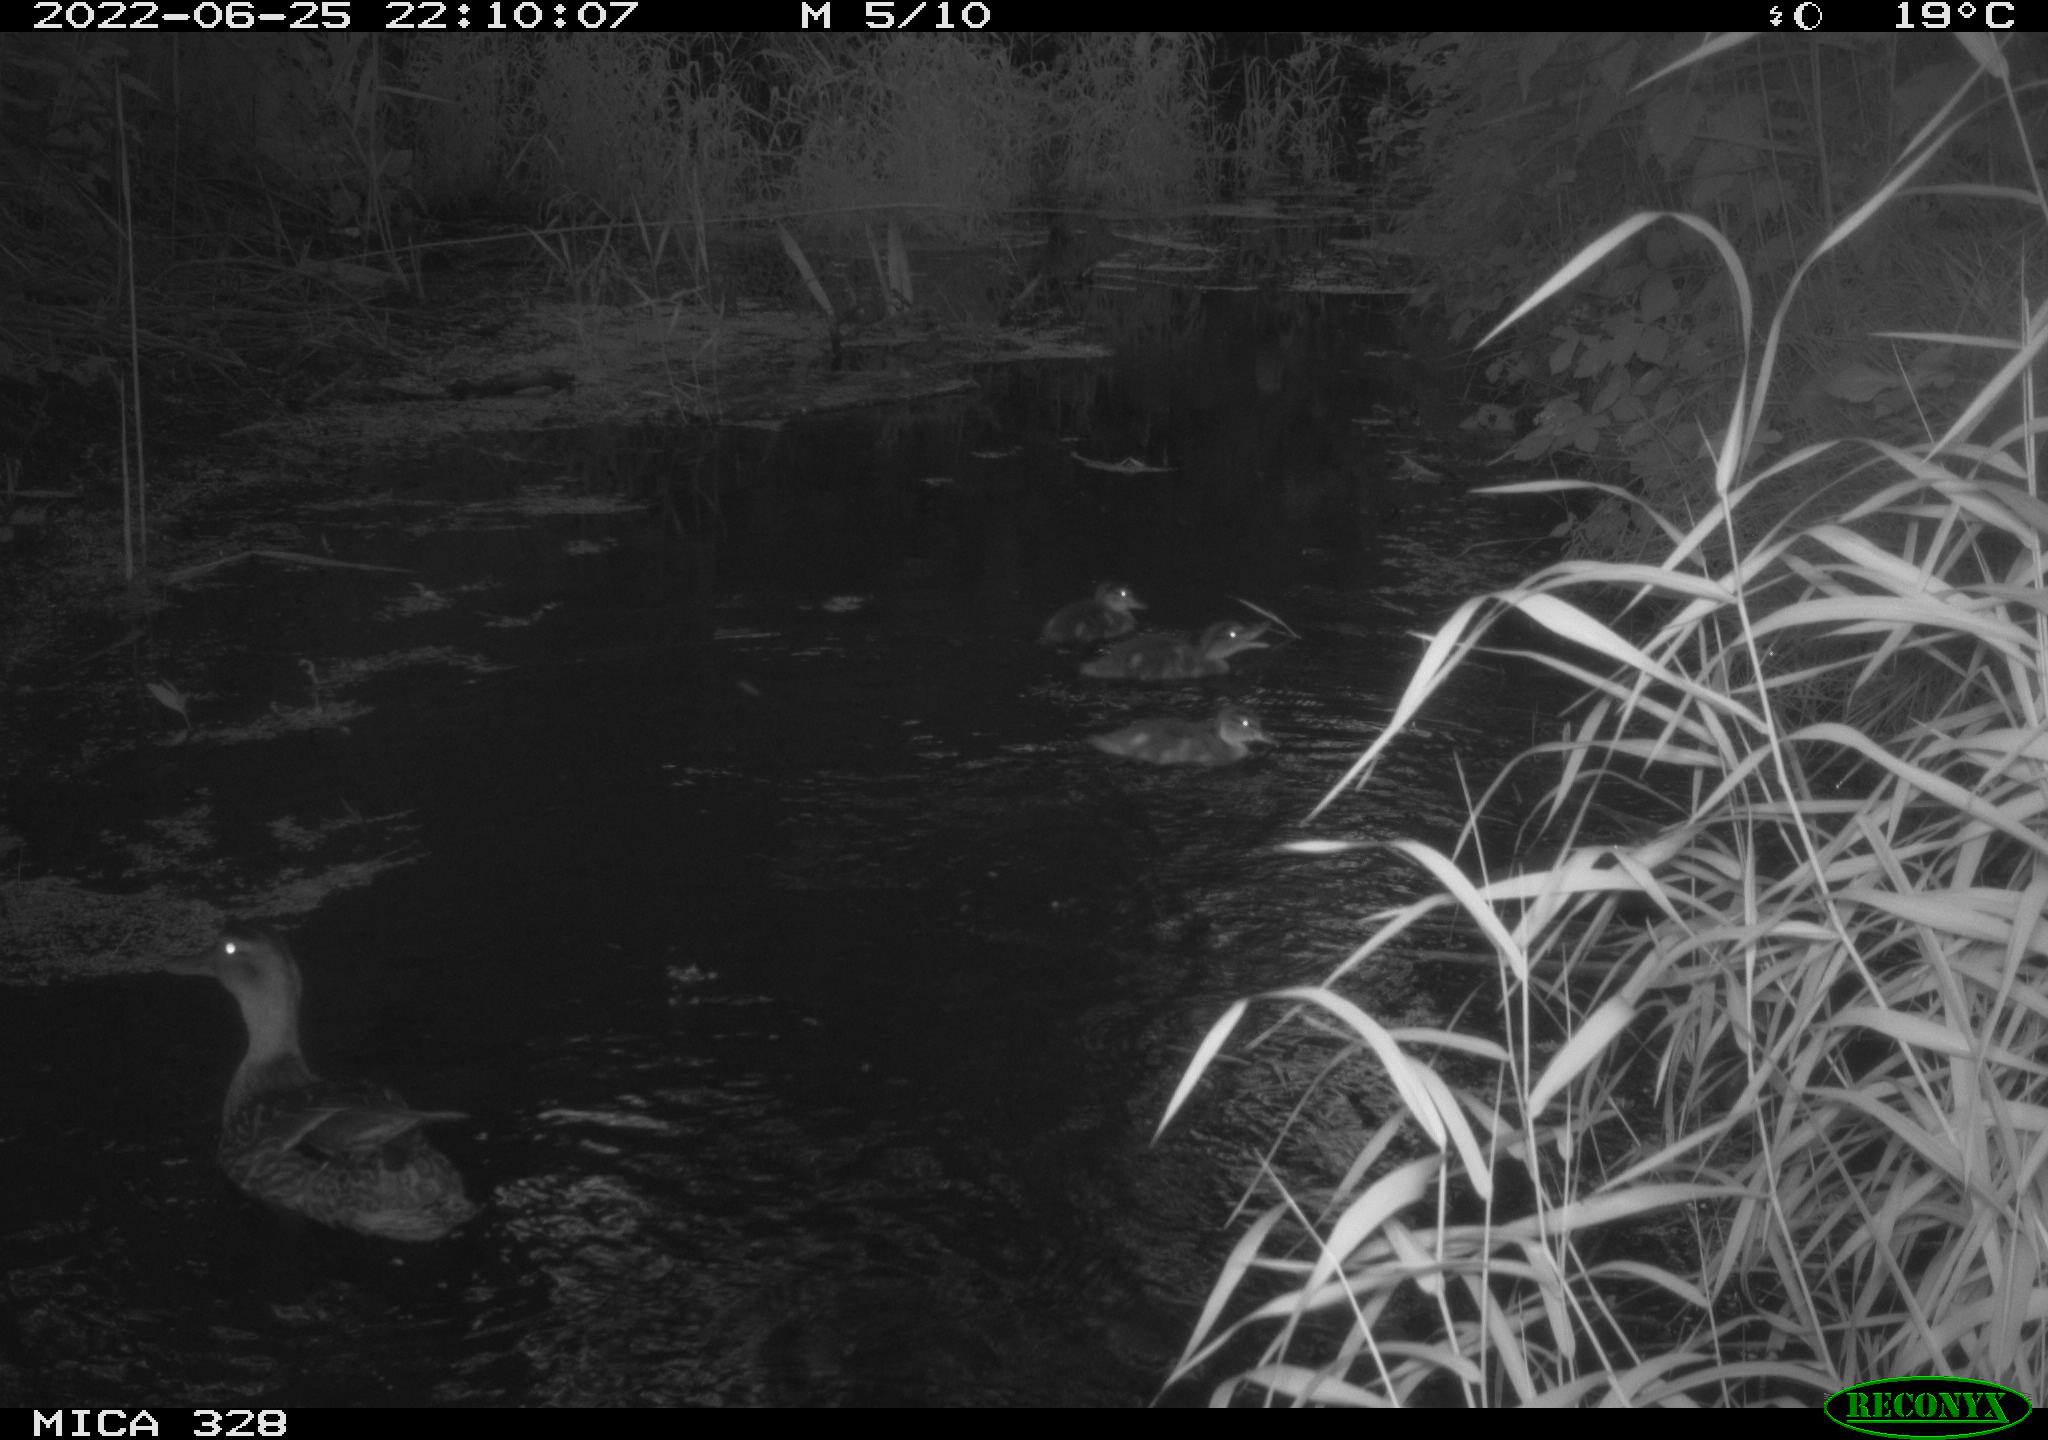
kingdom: Animalia
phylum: Chordata
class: Aves
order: Anseriformes
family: Anatidae
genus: Anas
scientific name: Anas platyrhynchos
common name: Mallard
